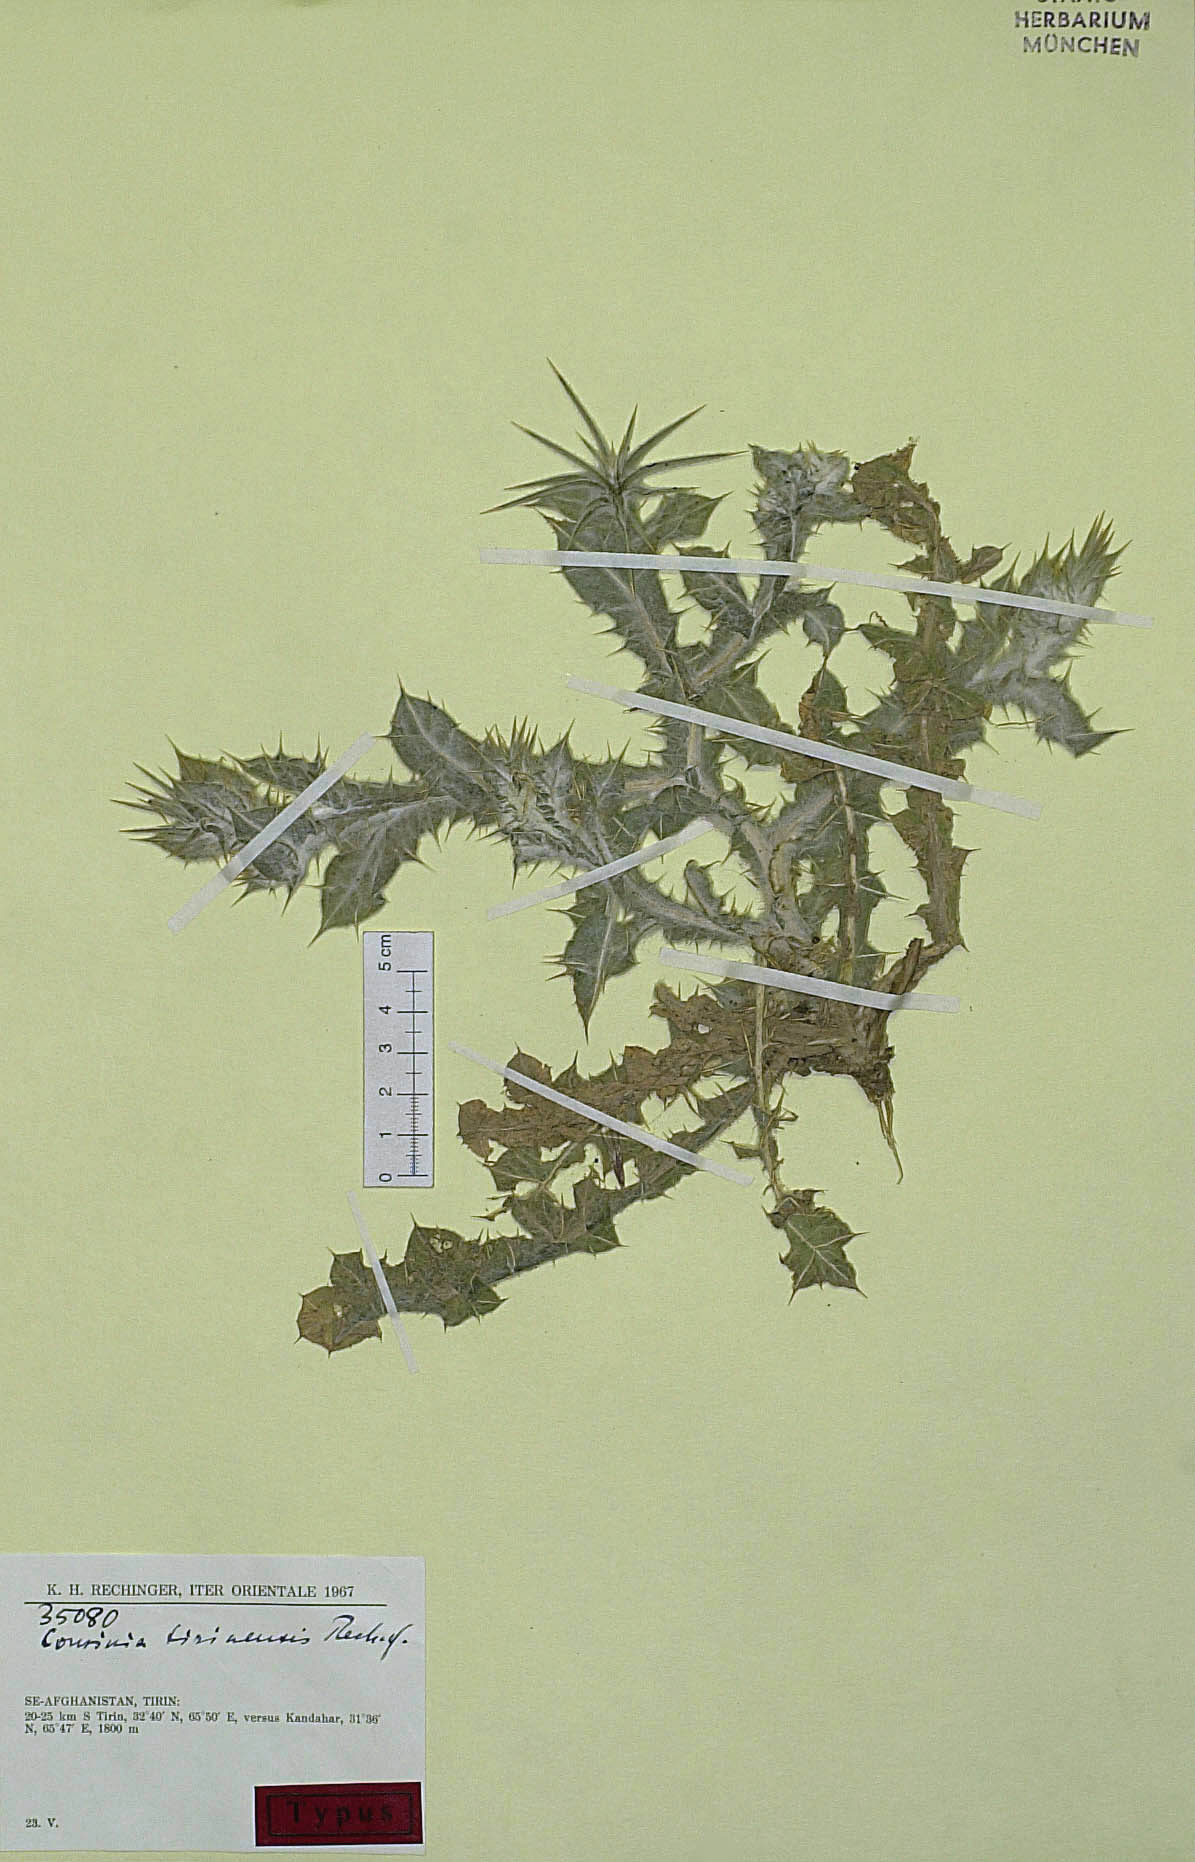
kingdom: Plantae
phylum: Tracheophyta
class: Magnoliopsida
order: Asterales
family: Asteraceae
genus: Cousinia
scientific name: Cousinia tirinensis
